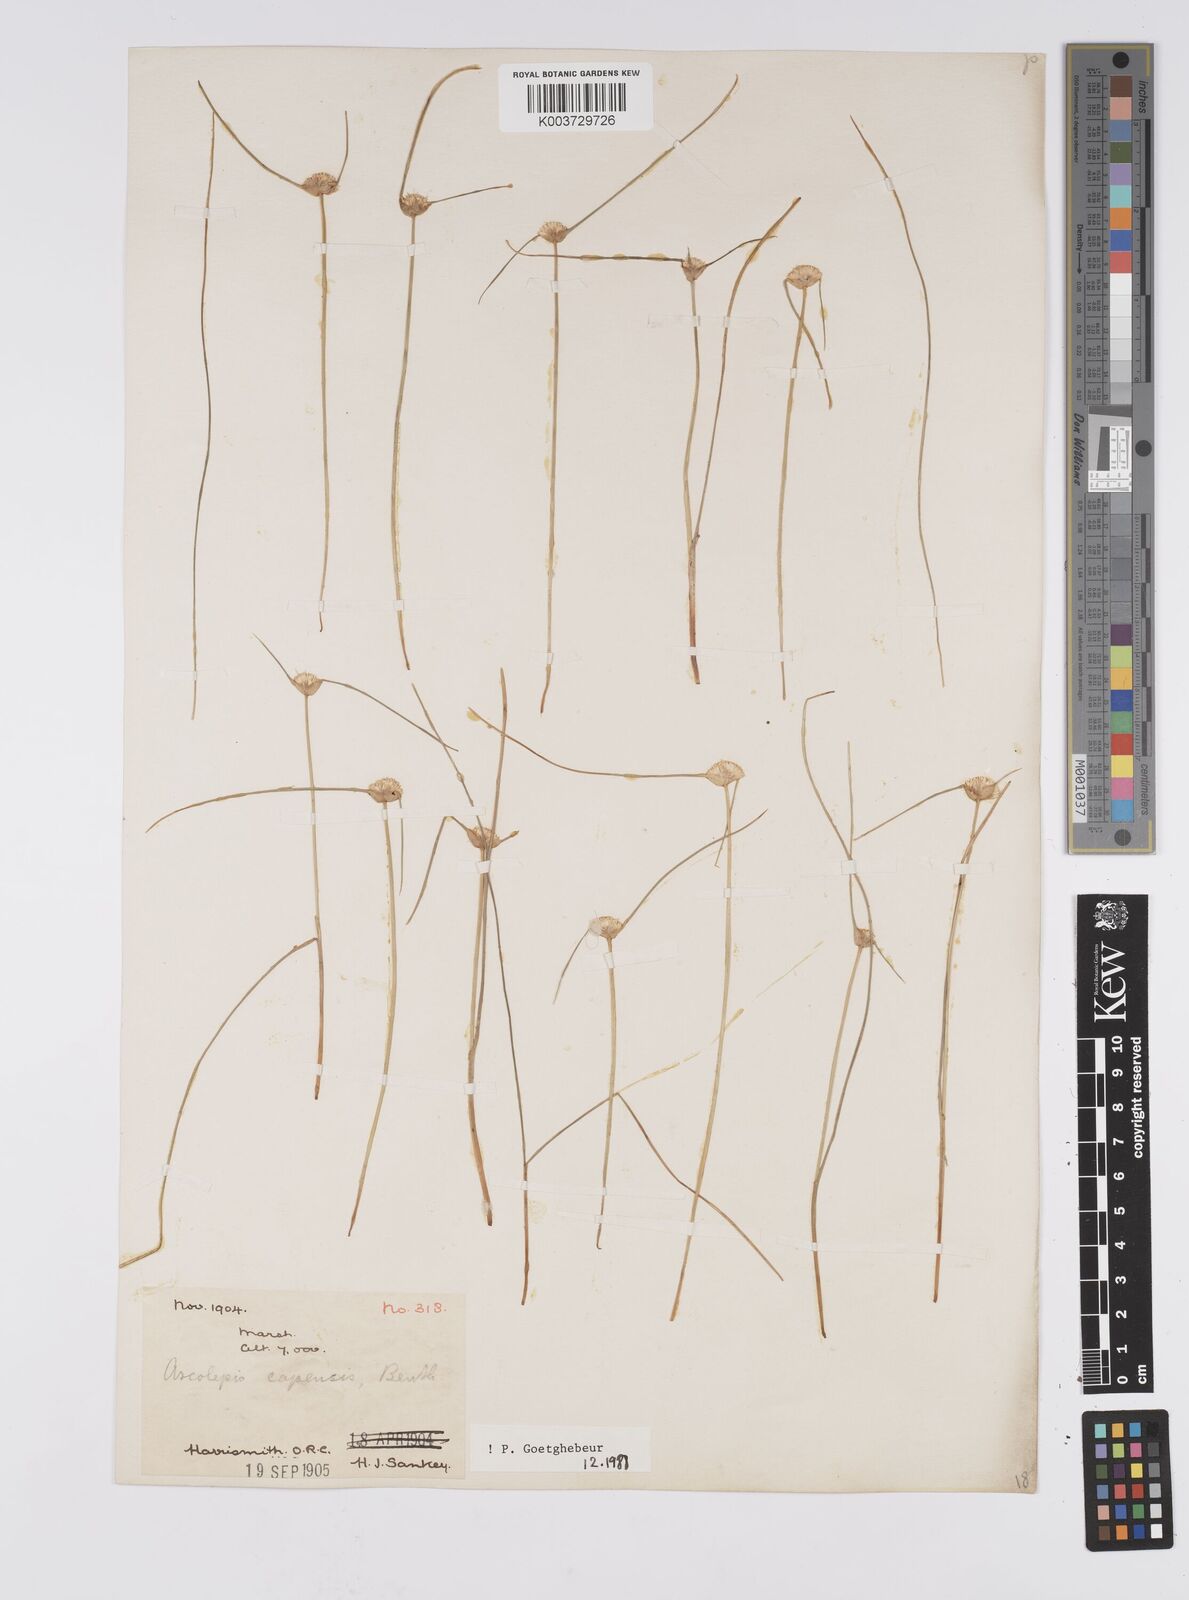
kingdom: Plantae
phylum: Tracheophyta
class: Liliopsida
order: Poales
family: Cyperaceae
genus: Cyperus
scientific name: Cyperus capensis
